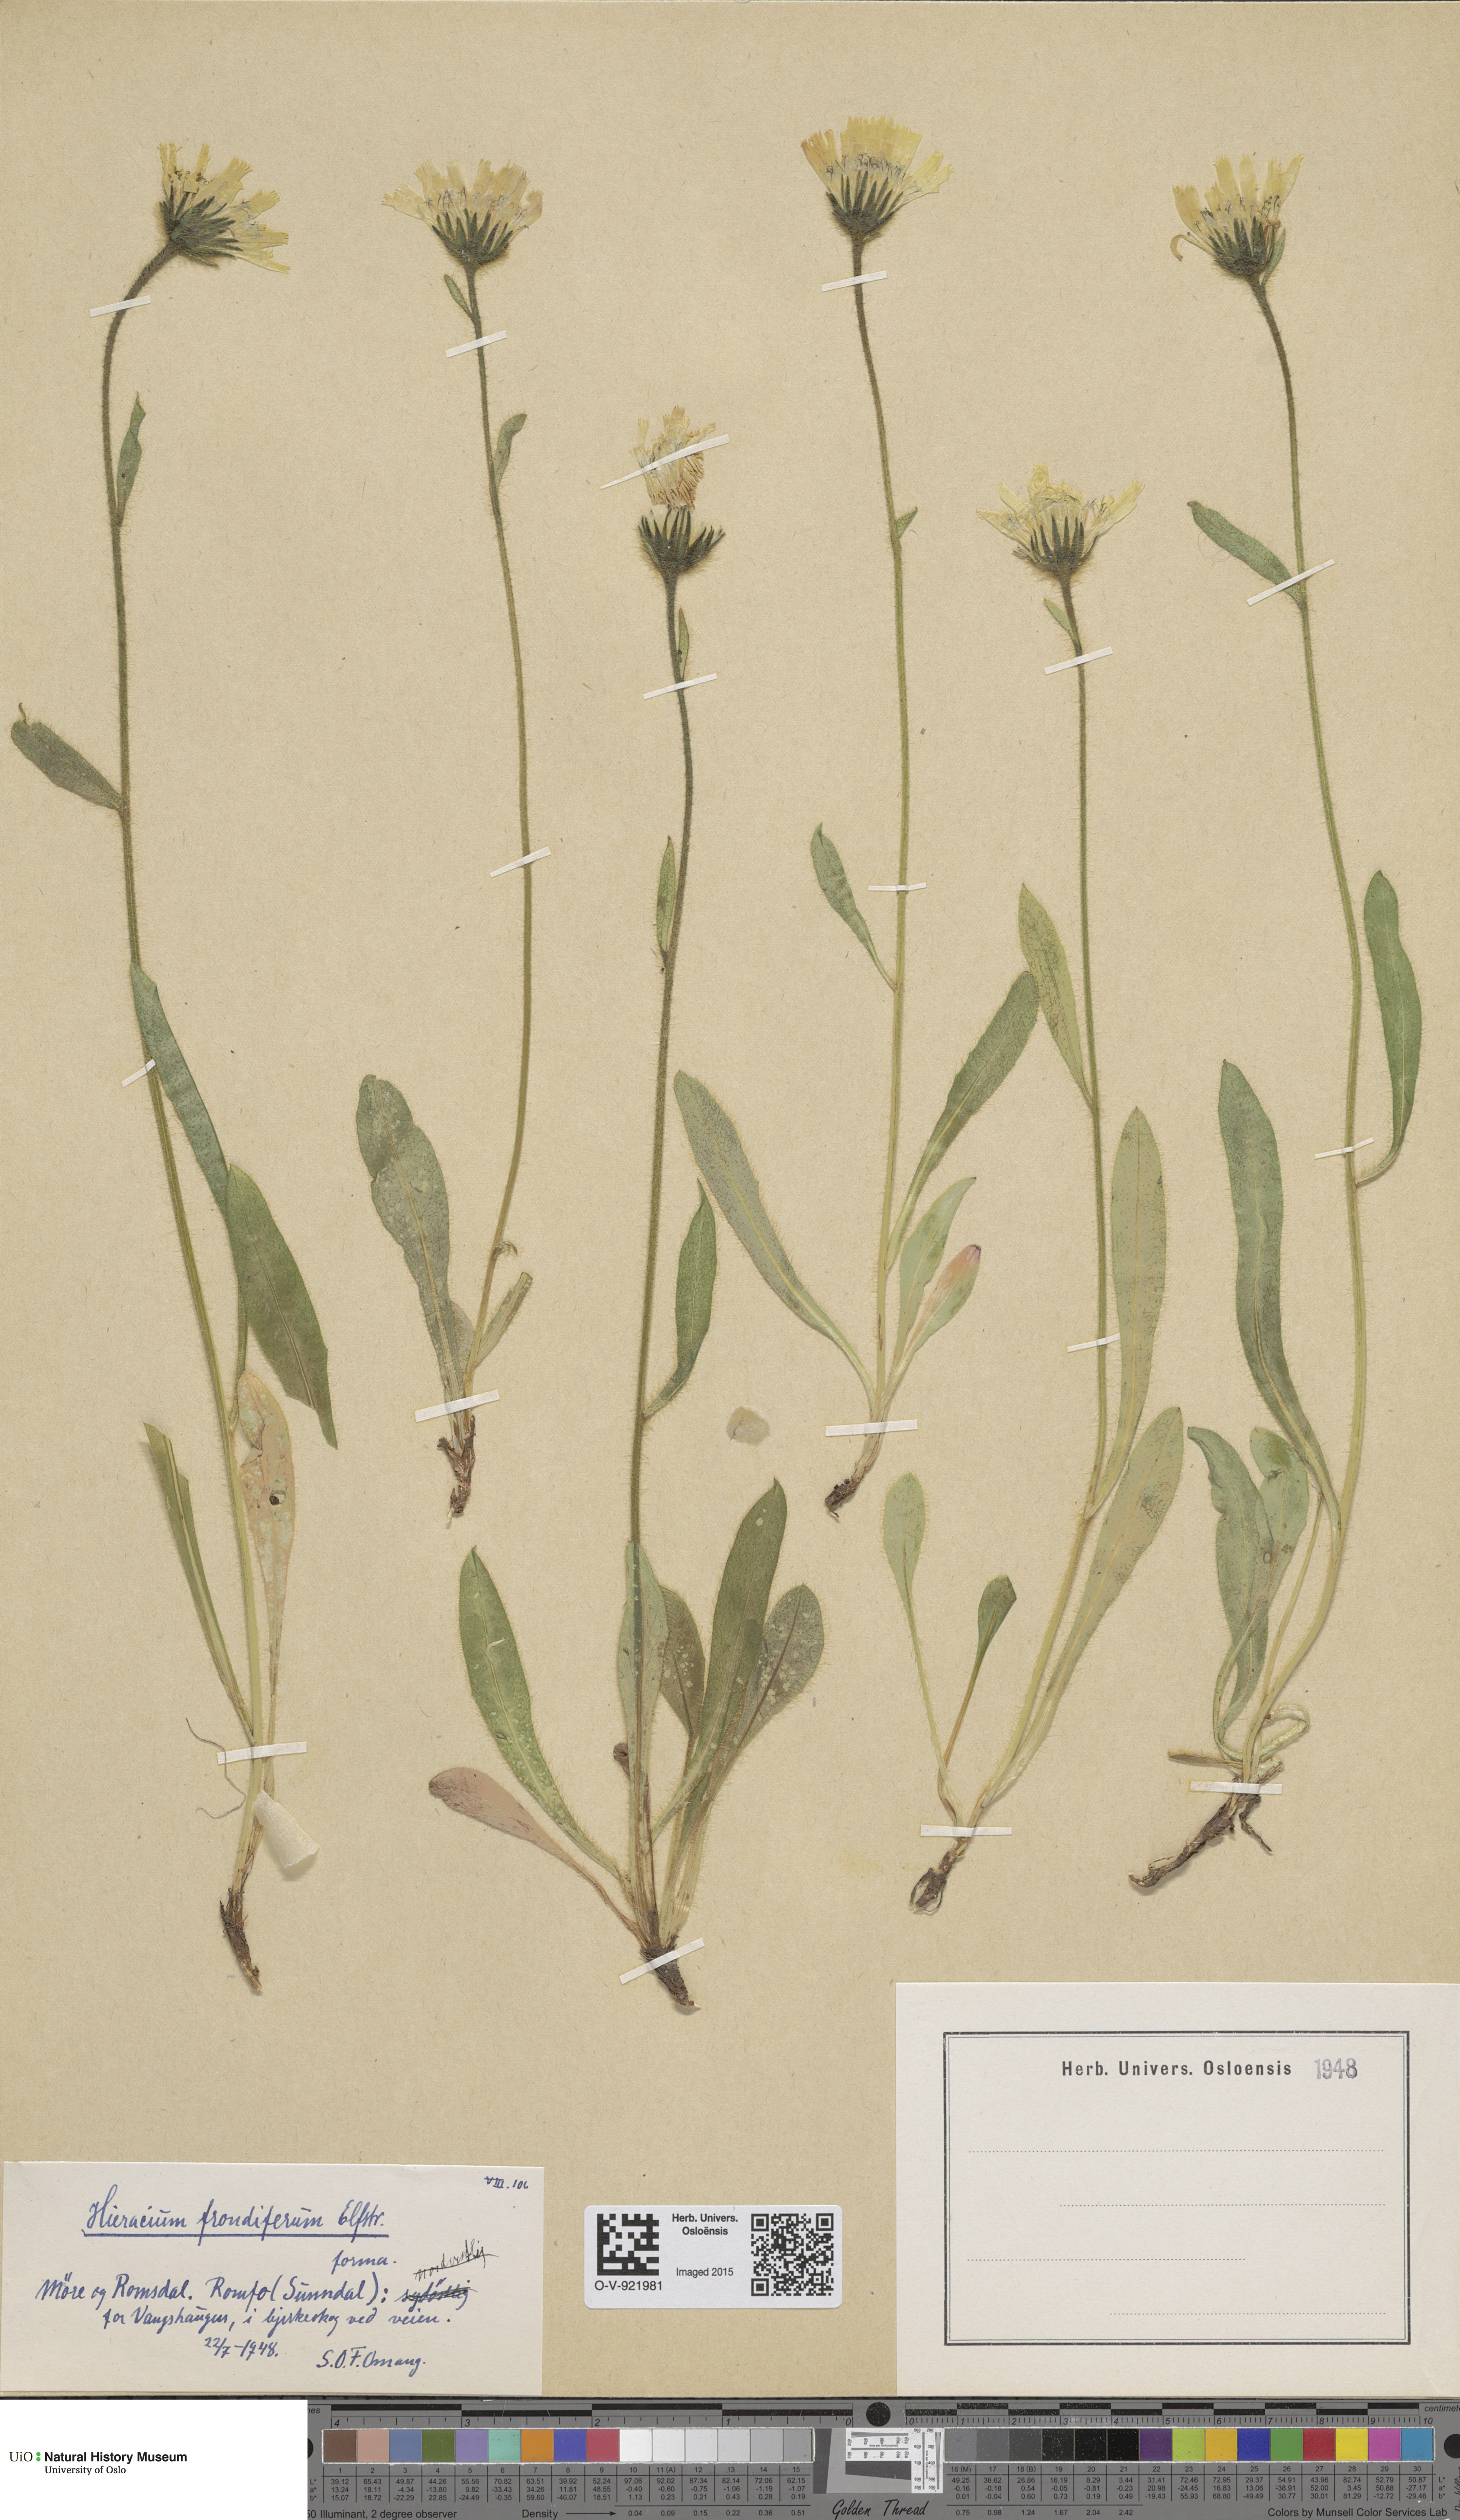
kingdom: Plantae
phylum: Tracheophyta
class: Magnoliopsida
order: Asterales
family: Asteraceae
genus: Hieracium
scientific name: Hieracium alpinum
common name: Alpine hawkweed
